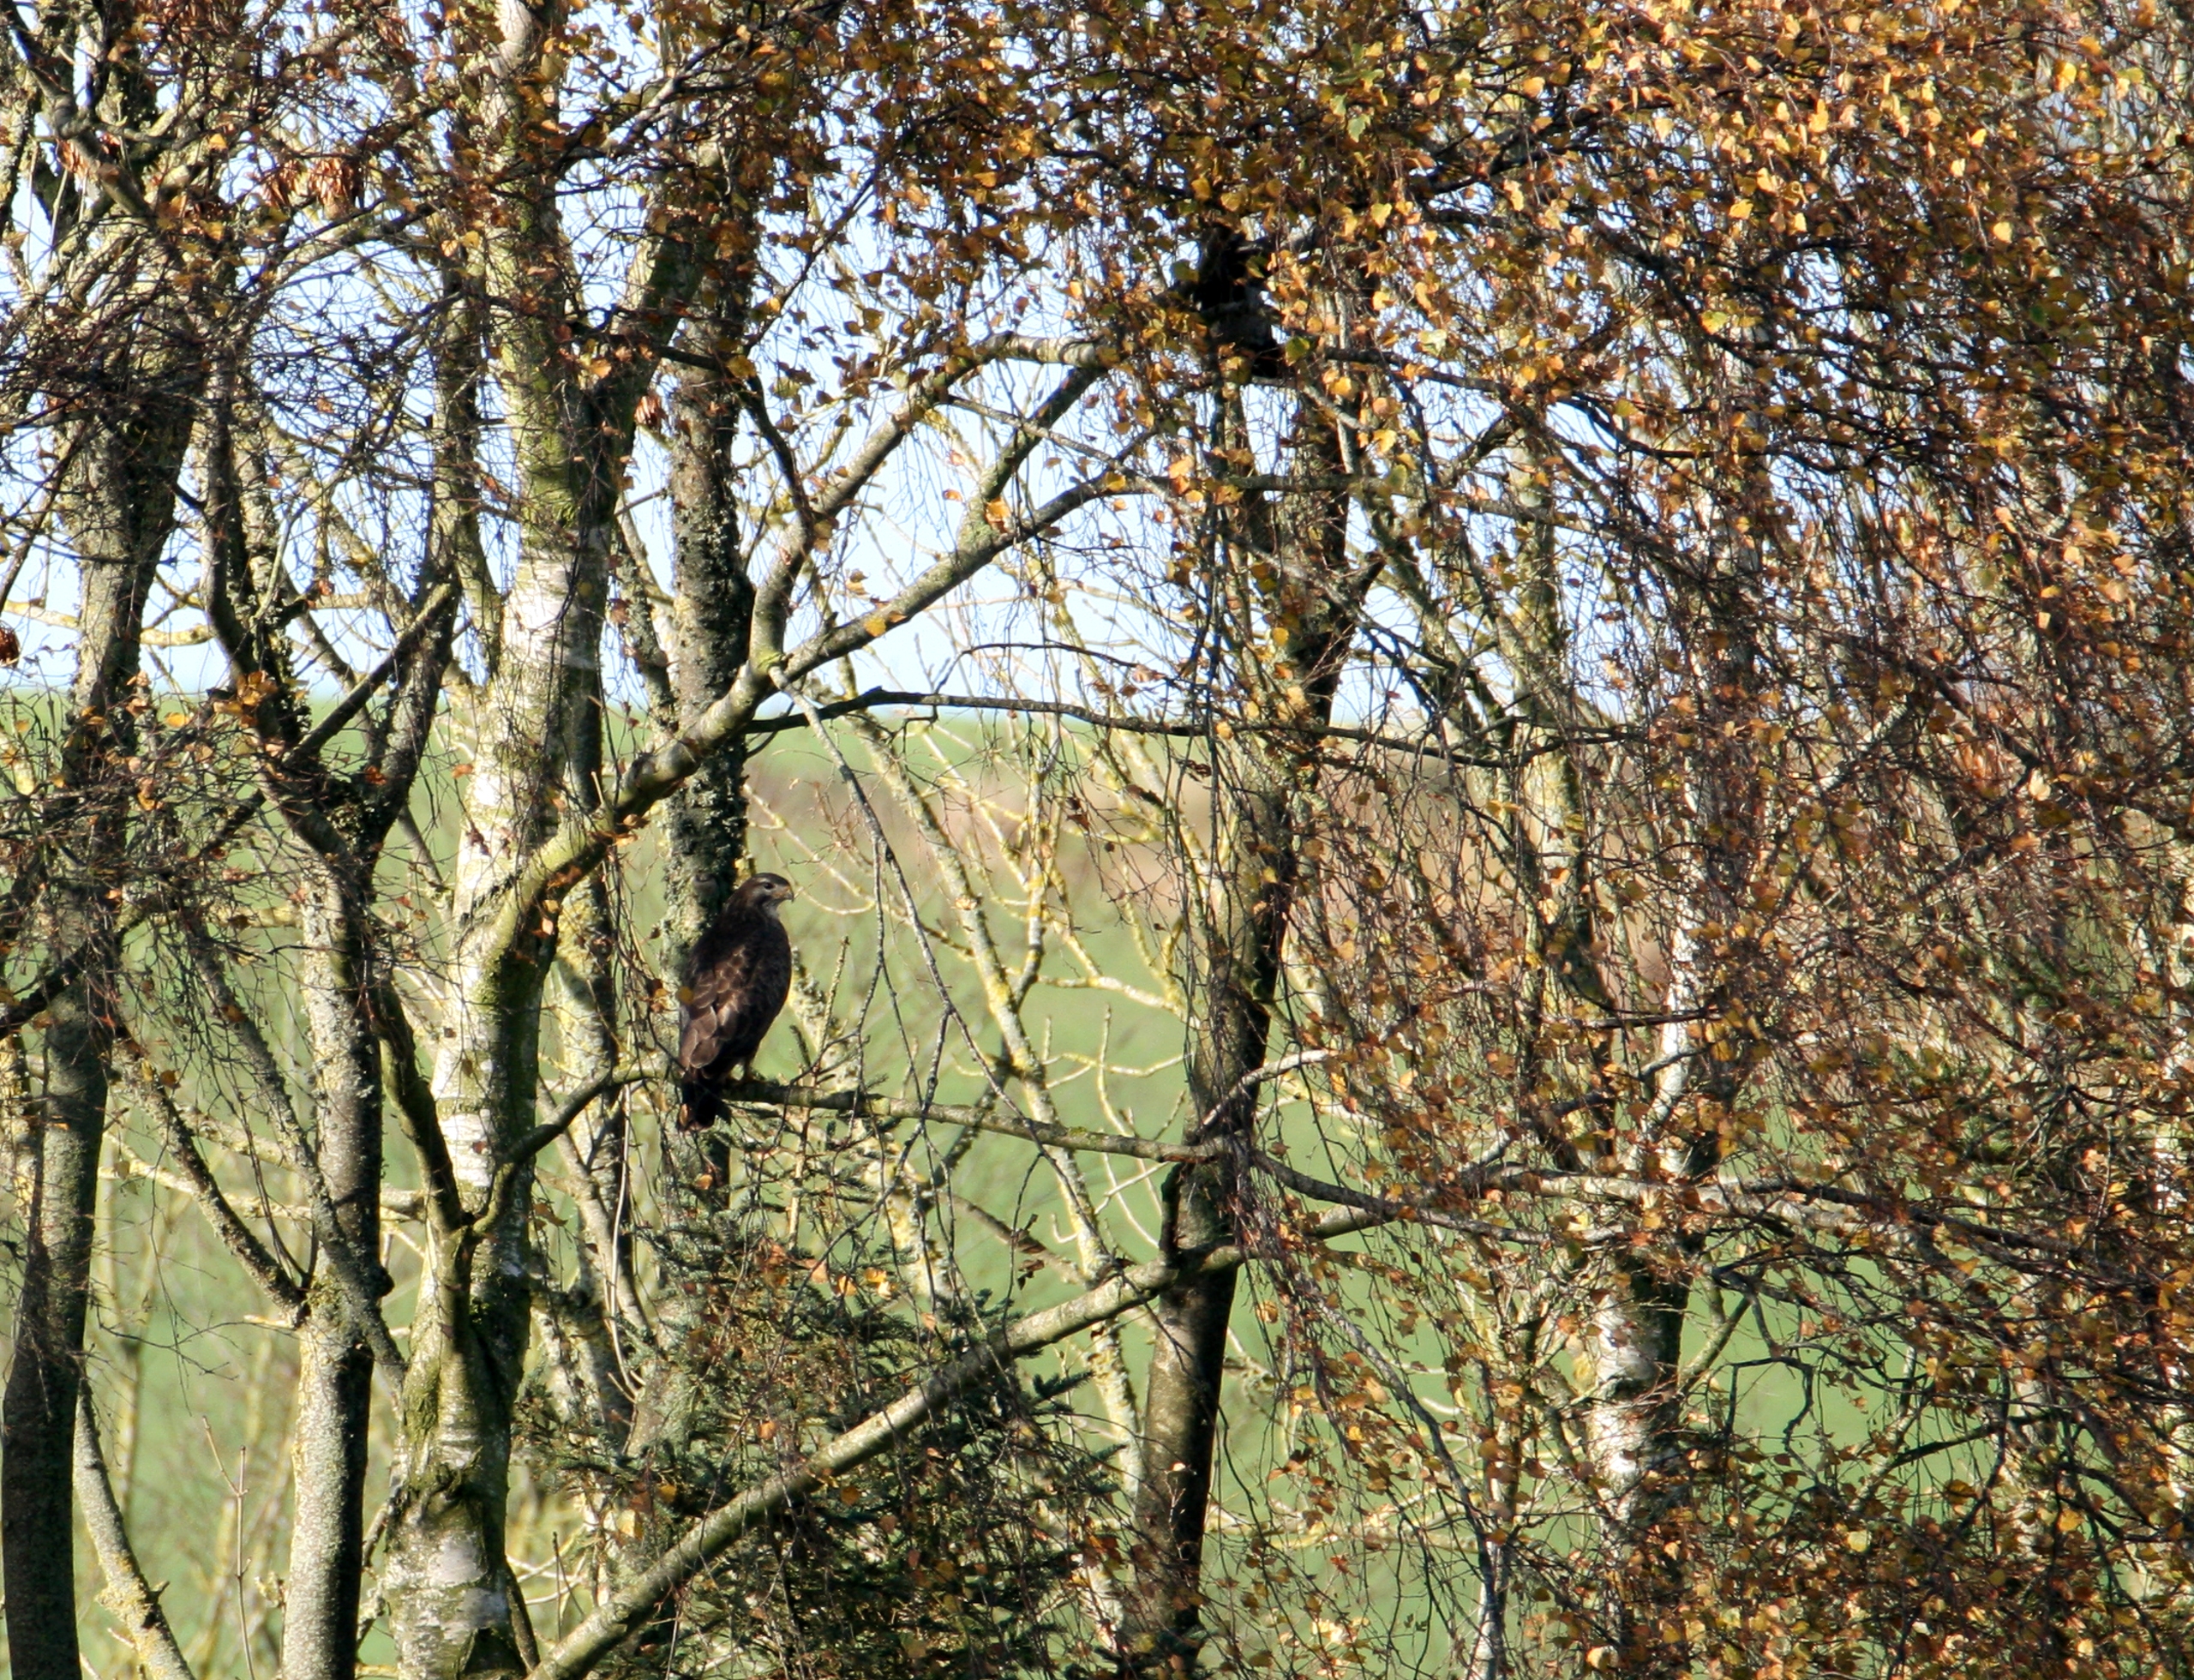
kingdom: Animalia
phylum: Chordata
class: Aves
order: Accipitriformes
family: Accipitridae
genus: Buteo
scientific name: Buteo buteo
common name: Musvåge
